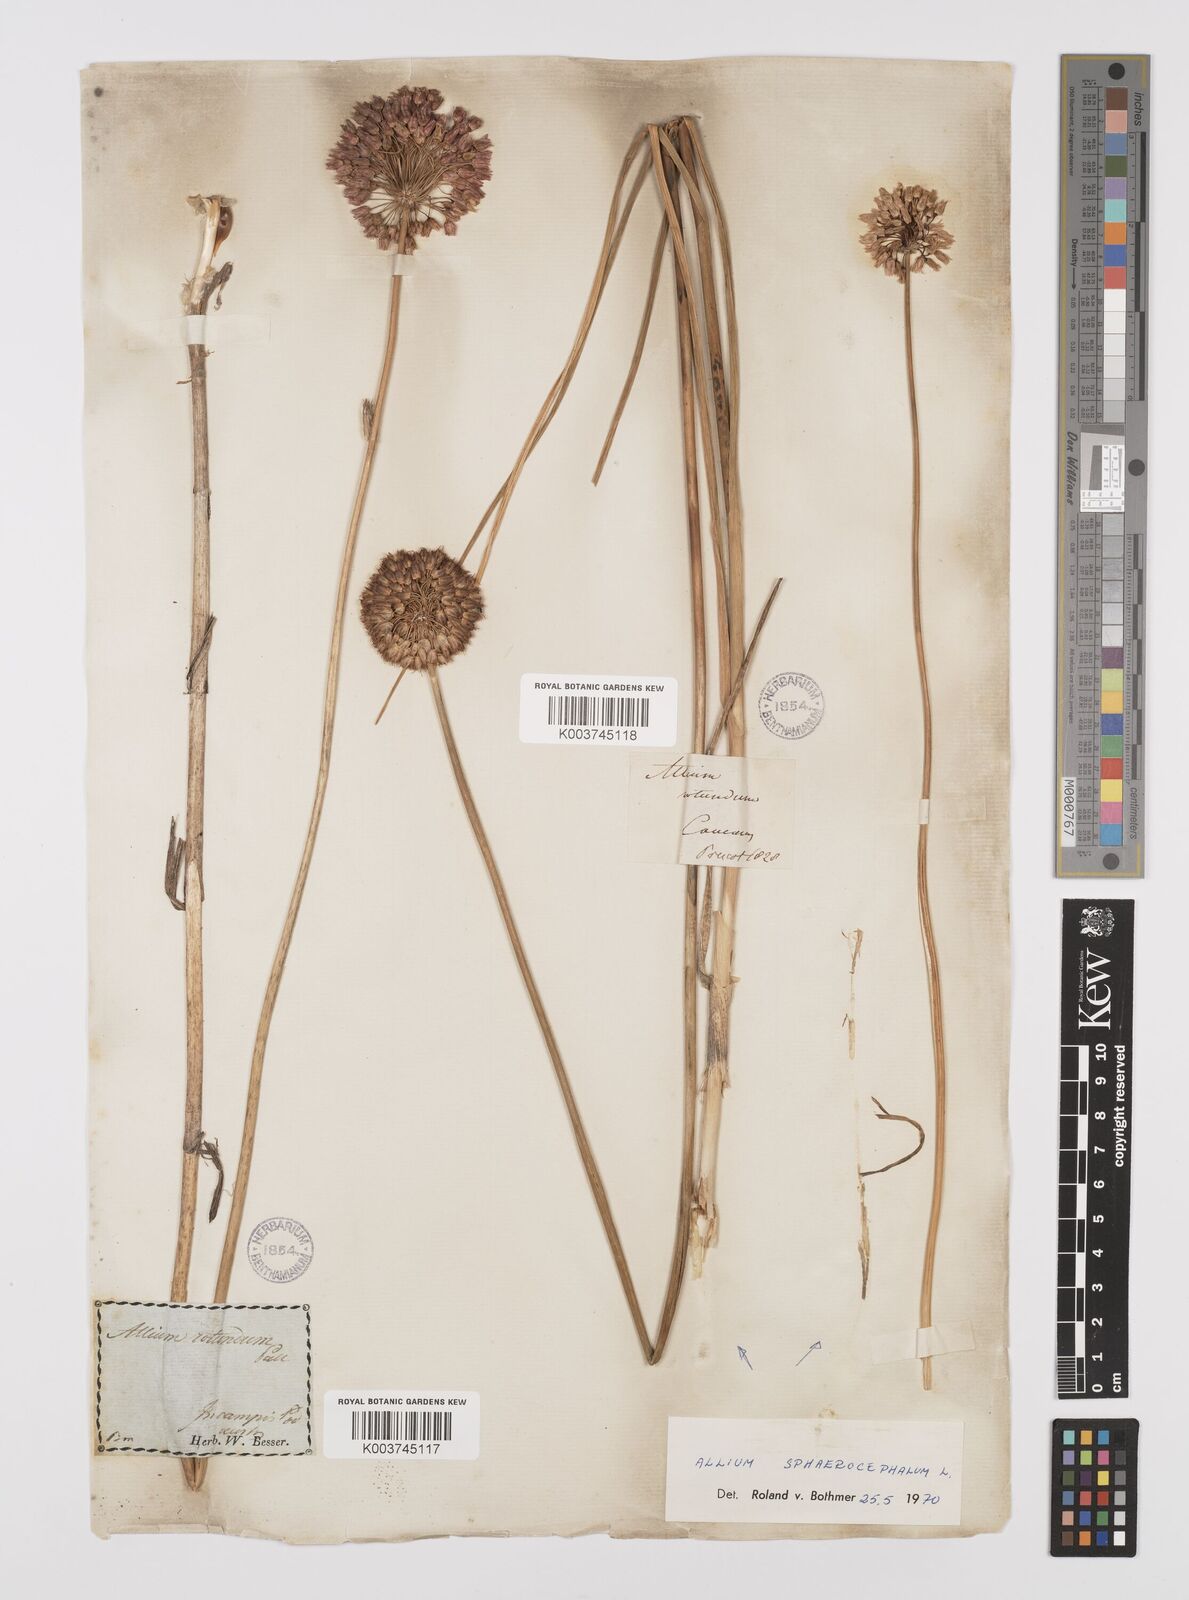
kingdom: Plantae
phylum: Tracheophyta
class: Liliopsida
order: Asparagales
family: Amaryllidaceae
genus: Allium
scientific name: Allium vineale
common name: Crow garlic
